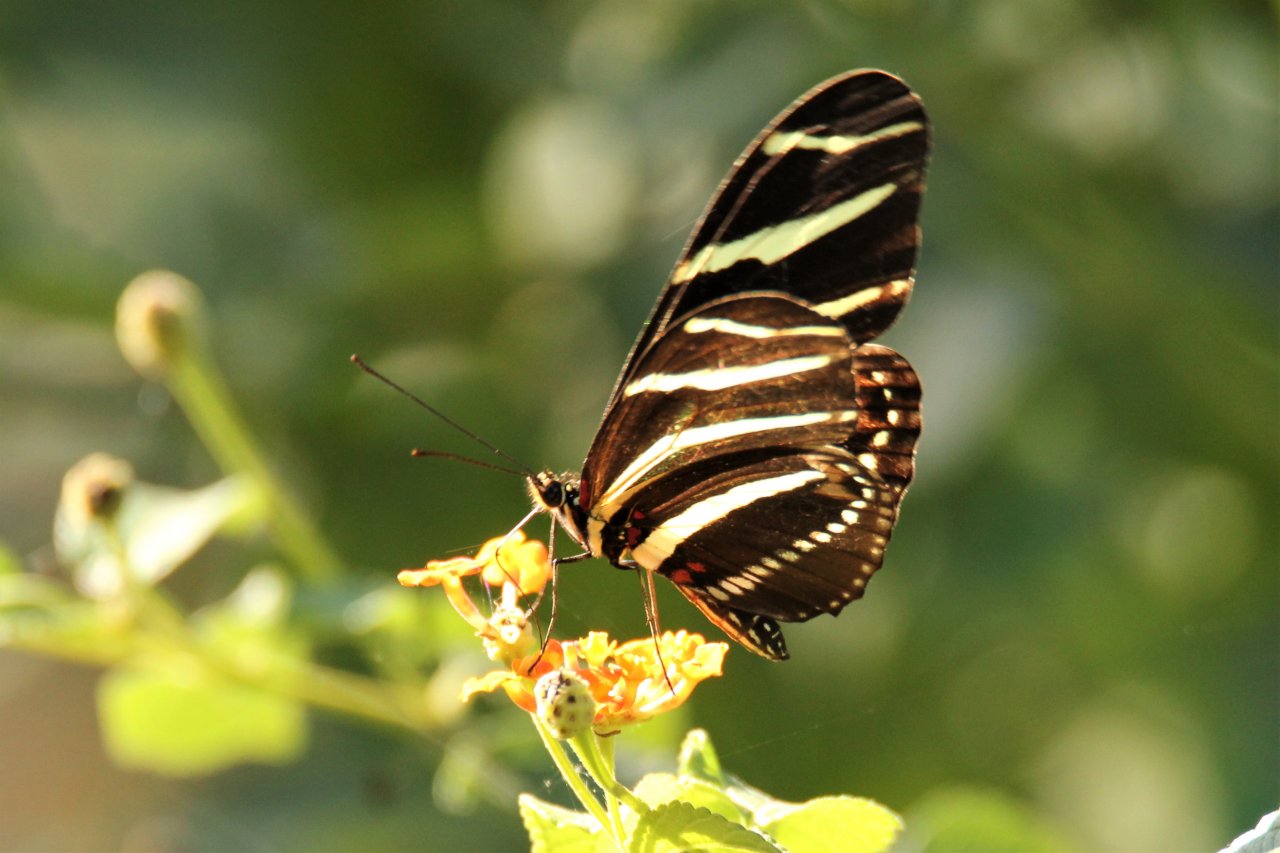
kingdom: Animalia
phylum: Arthropoda
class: Insecta
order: Lepidoptera
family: Nymphalidae
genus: Heliconius
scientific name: Heliconius charithonia
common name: Zebra Longwing
